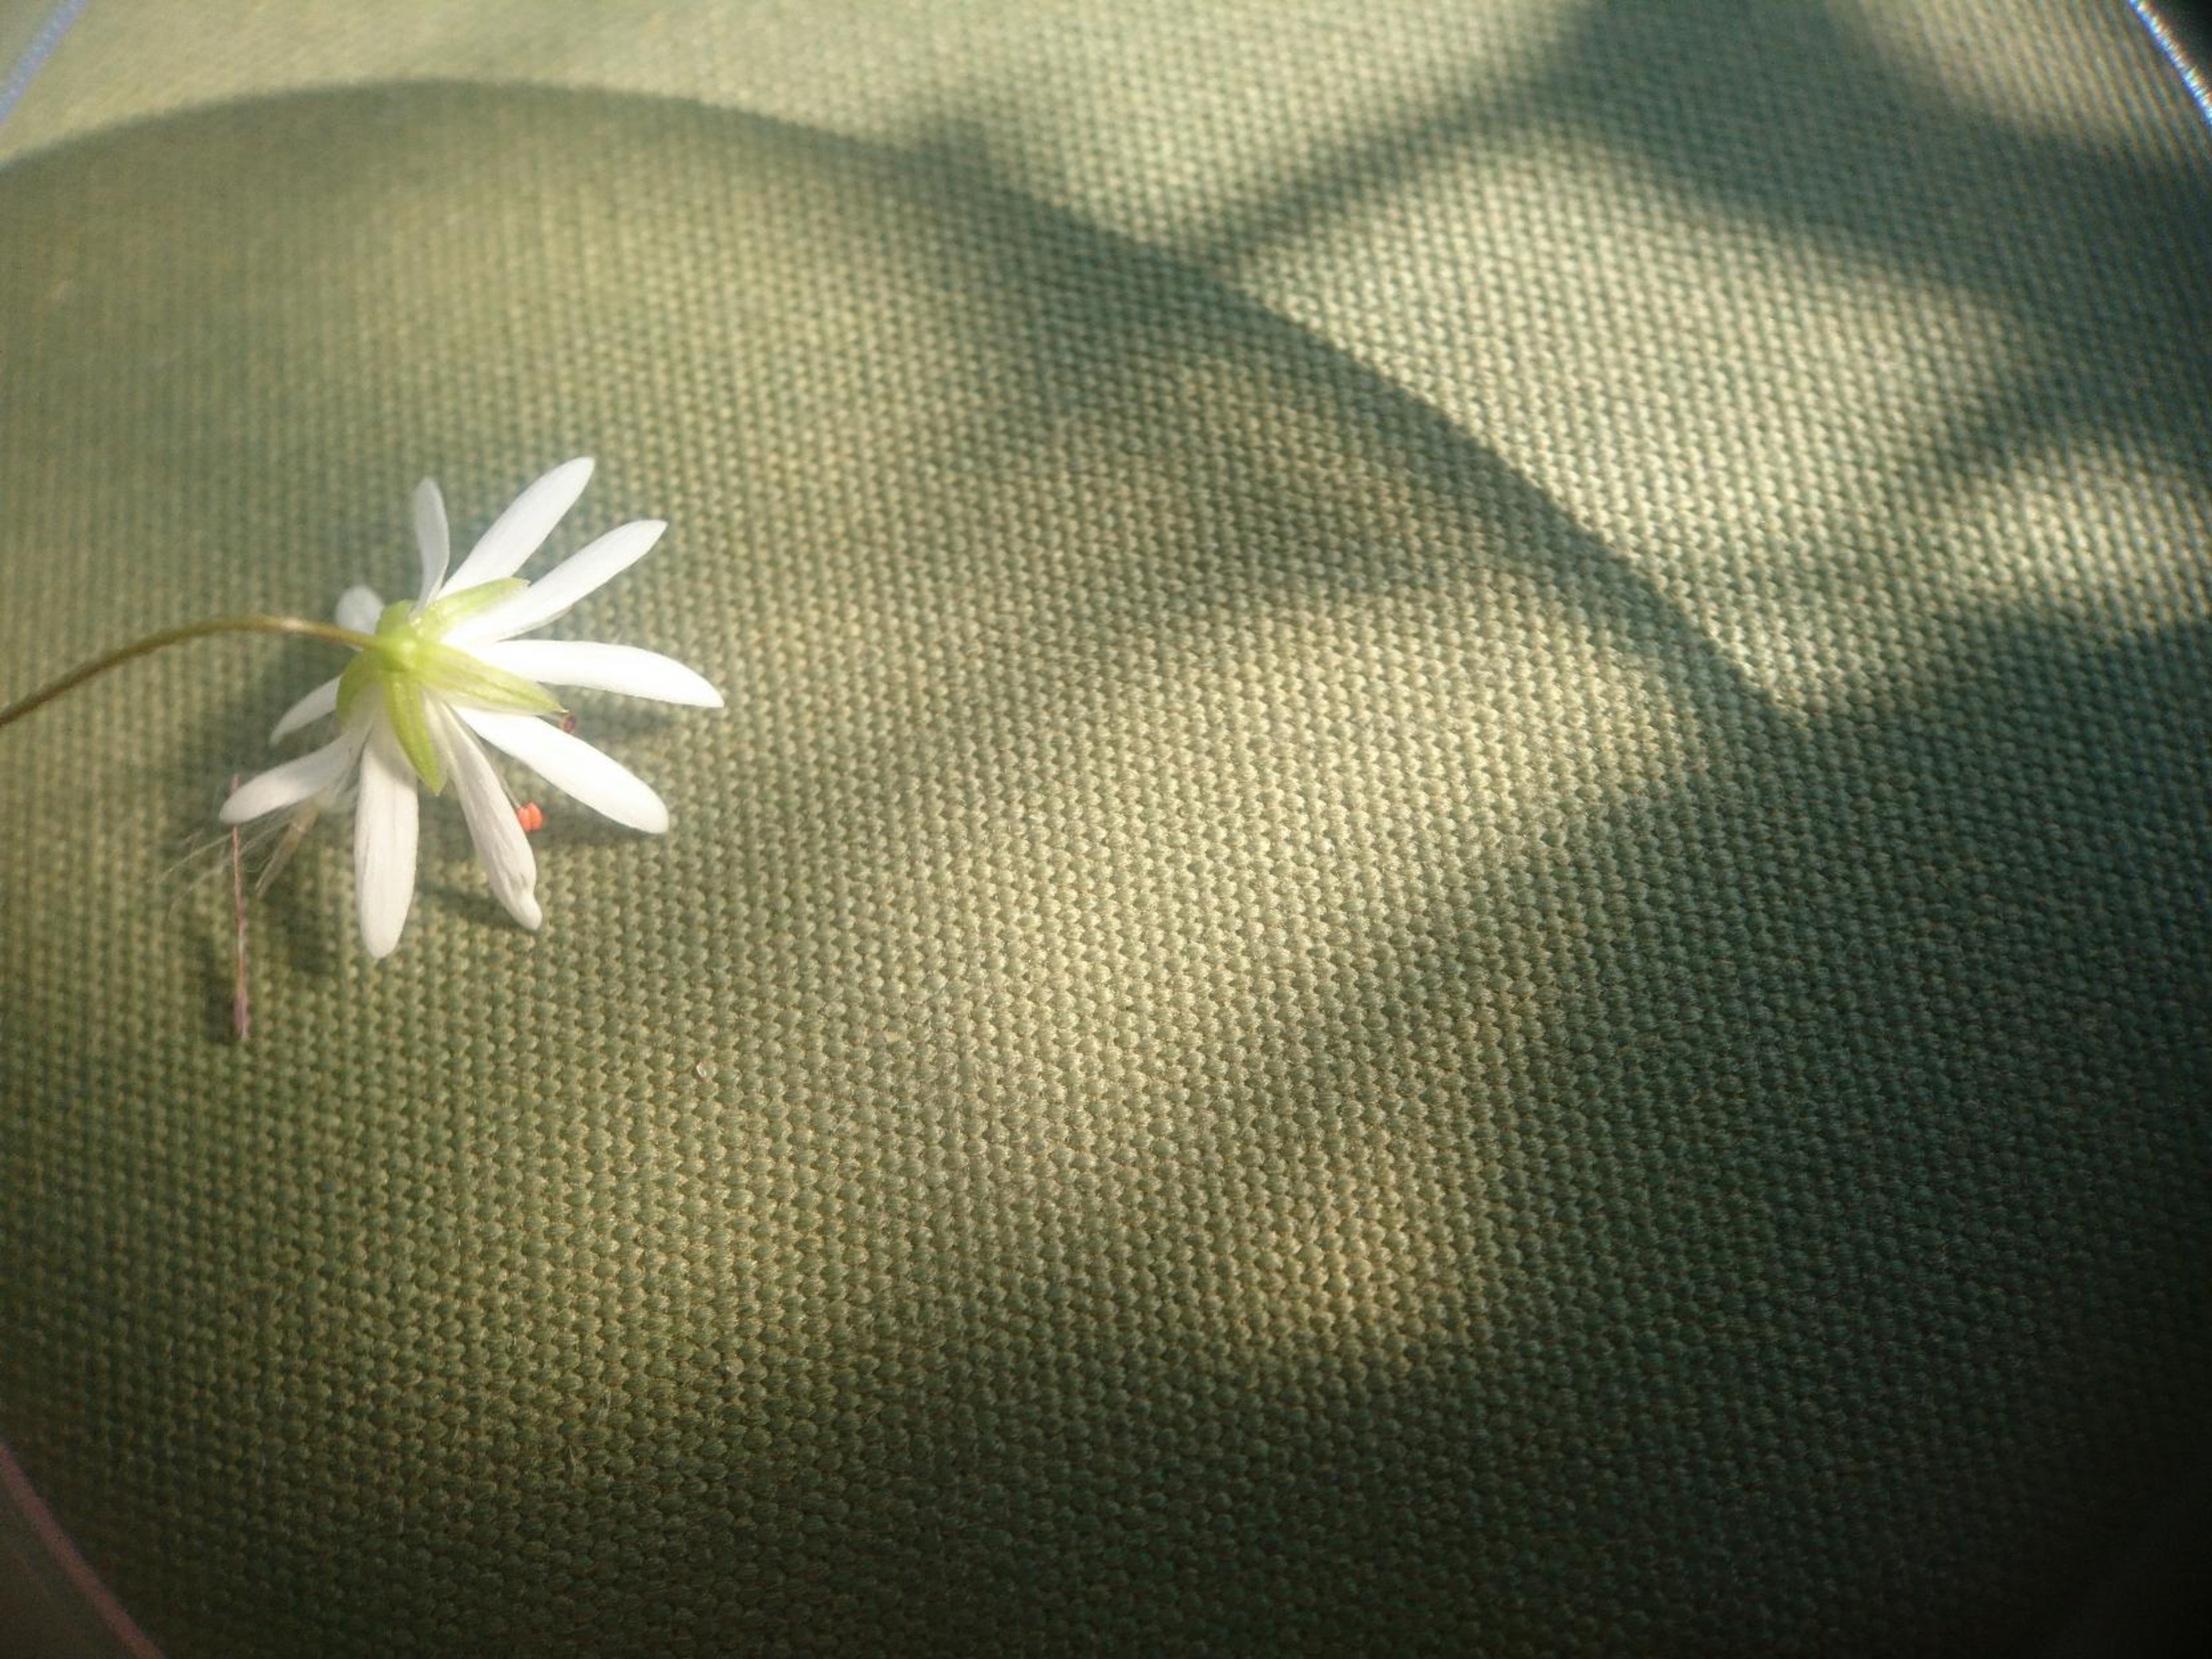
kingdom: Plantae
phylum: Tracheophyta
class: Magnoliopsida
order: Caryophyllales
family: Caryophyllaceae
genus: Stellaria
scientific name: Stellaria palustris
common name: Kær-fladstjerne
